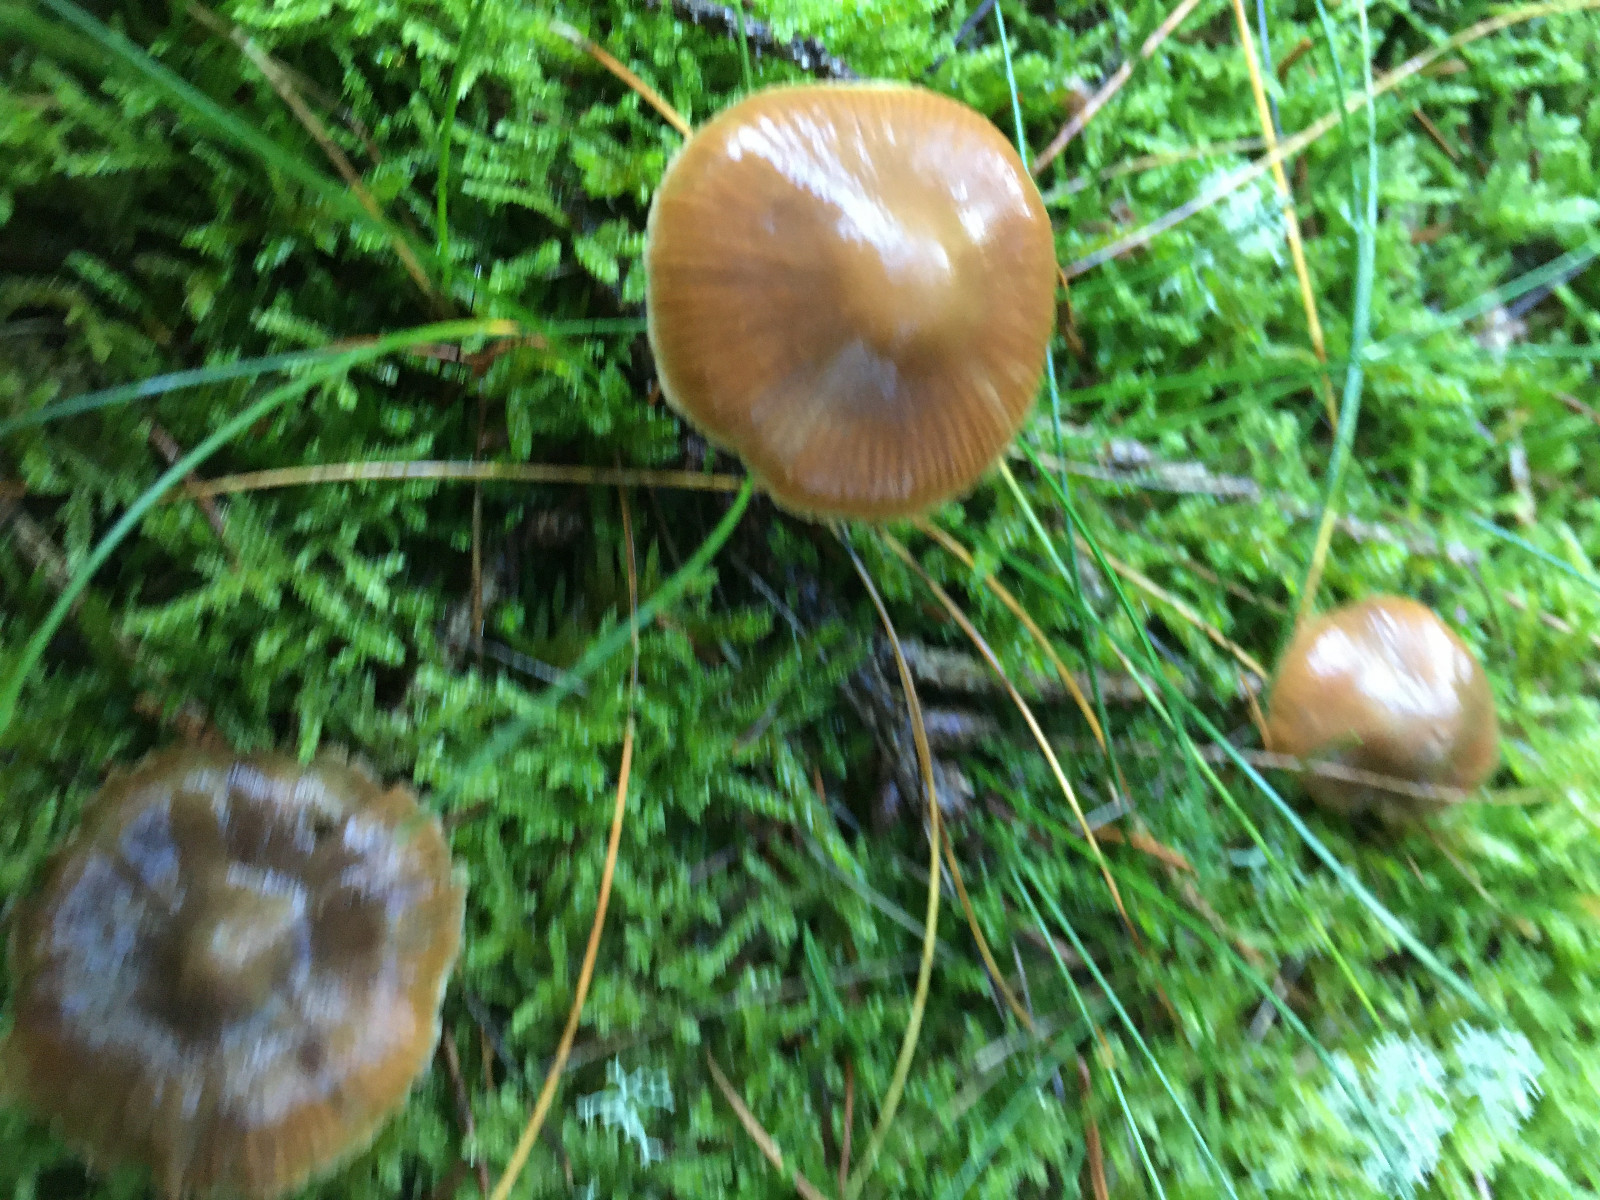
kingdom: Fungi
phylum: Basidiomycota
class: Agaricomycetes
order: Agaricales
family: Cortinariaceae
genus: Cortinarius
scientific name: Cortinarius
